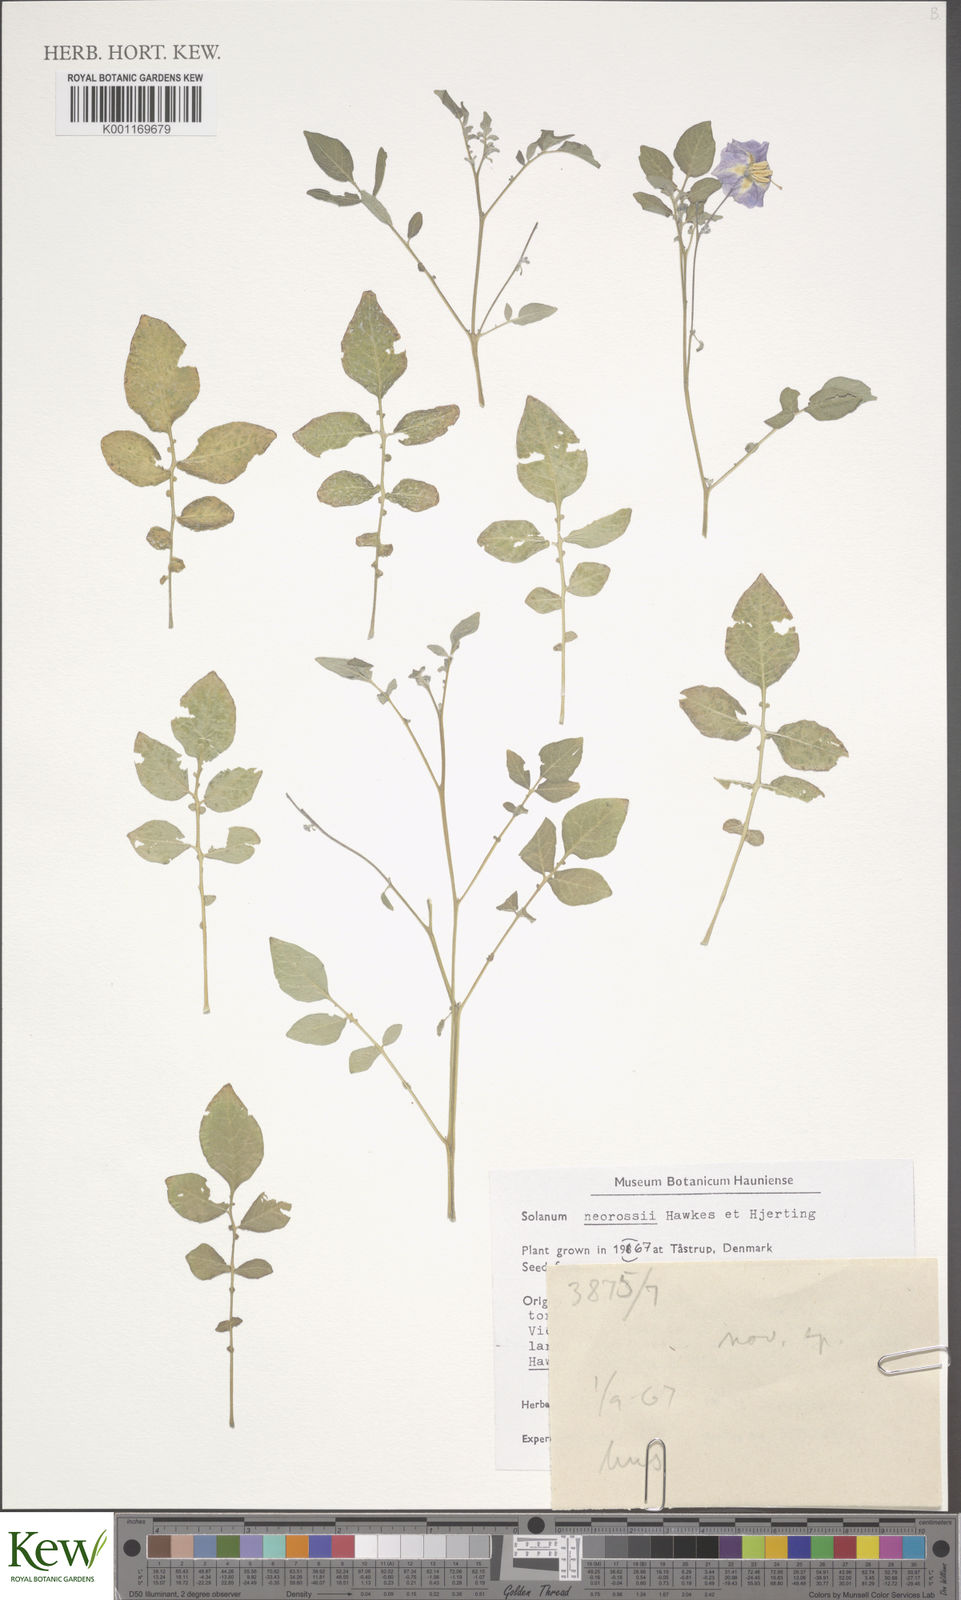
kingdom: Plantae
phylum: Tracheophyta
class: Magnoliopsida
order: Solanales
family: Solanaceae
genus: Solanum
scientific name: Solanum neorossii
